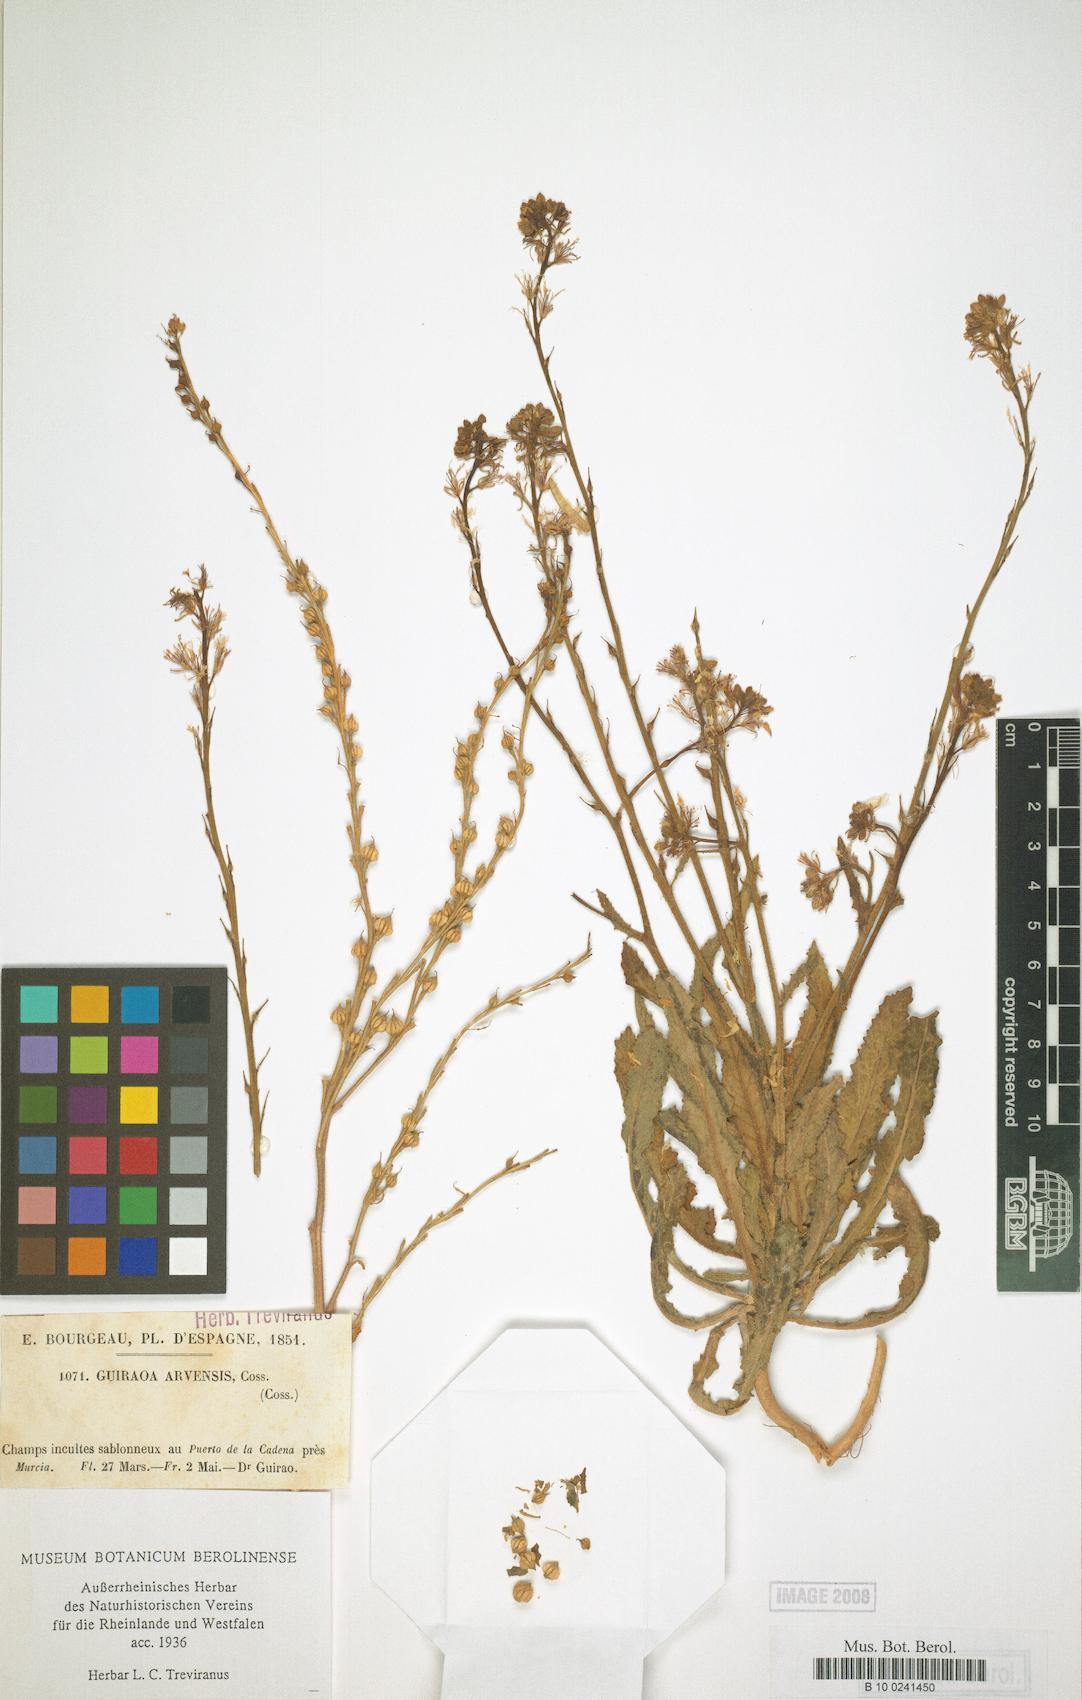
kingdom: Plantae
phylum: Tracheophyta
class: Magnoliopsida
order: Brassicales
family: Brassicaceae
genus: Guiraoa
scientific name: Guiraoa arvensis
